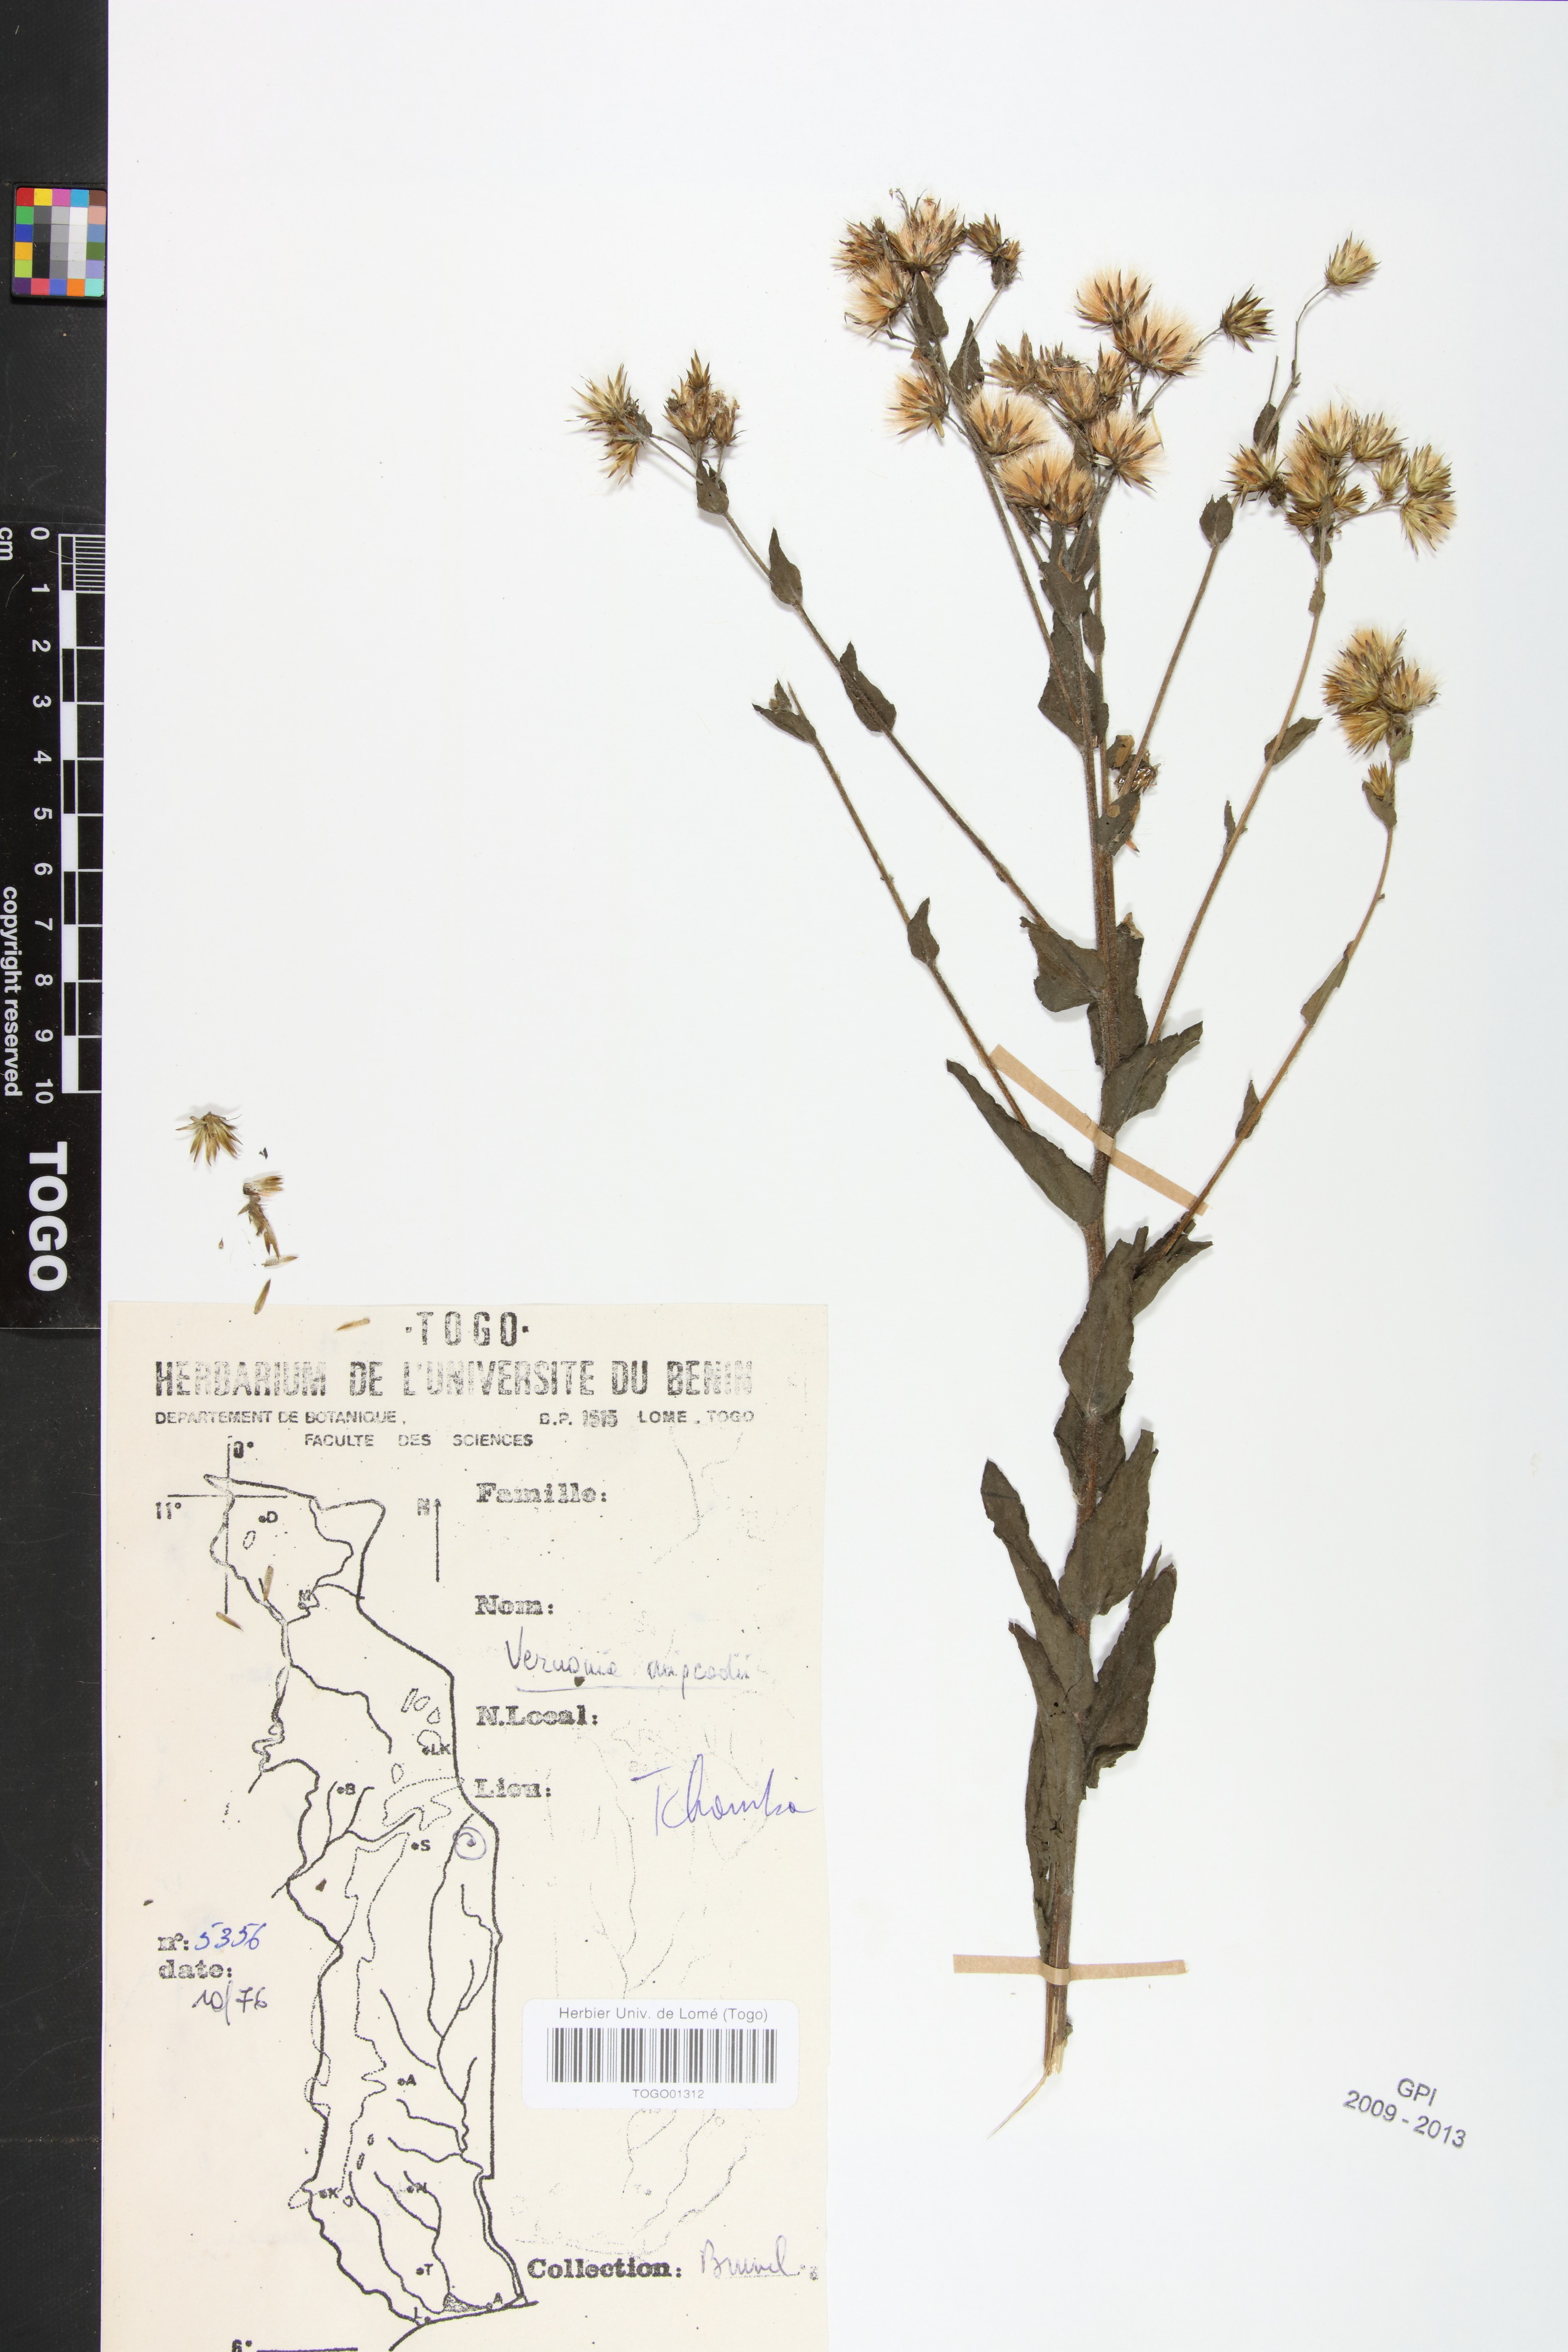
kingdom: Plantae
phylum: Tracheophyta
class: Magnoliopsida
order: Asterales
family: Asteraceae
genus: Vernoniastrum
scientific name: Vernoniastrum migeodii
